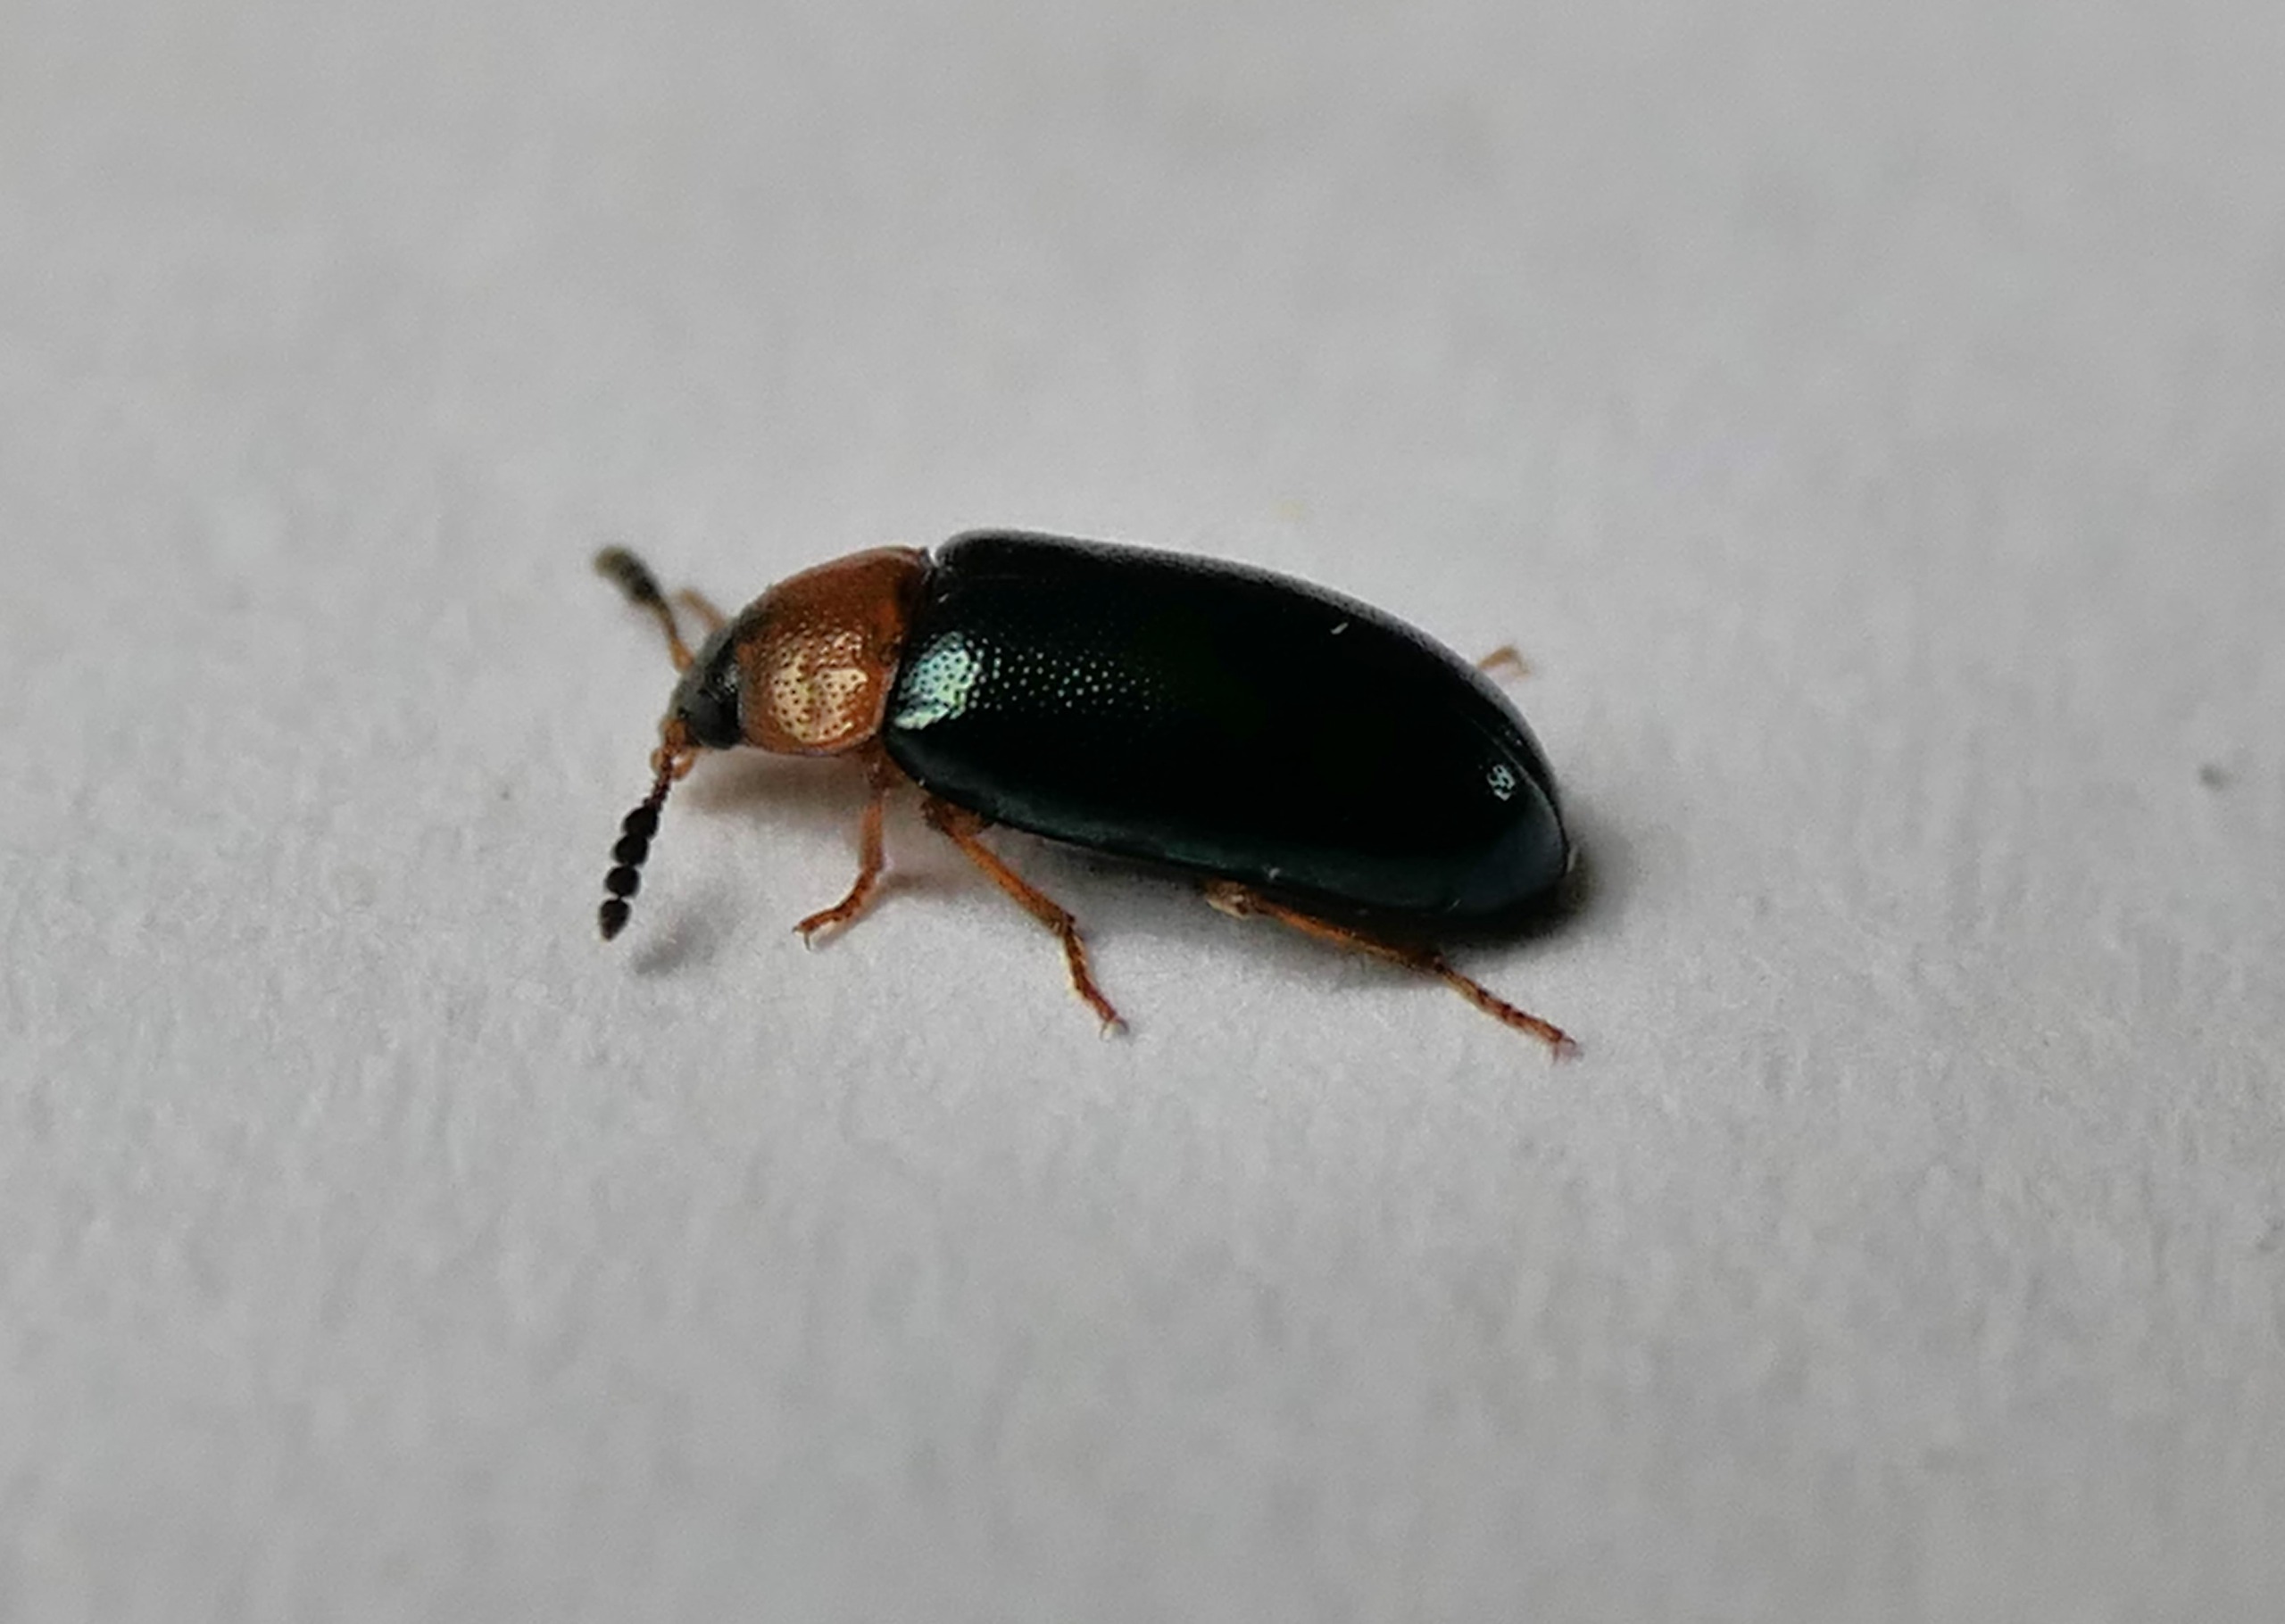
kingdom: Animalia
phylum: Arthropoda
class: Insecta
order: Coleoptera
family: Tetratomidae
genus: Tetratoma
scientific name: Tetratoma fungorum
